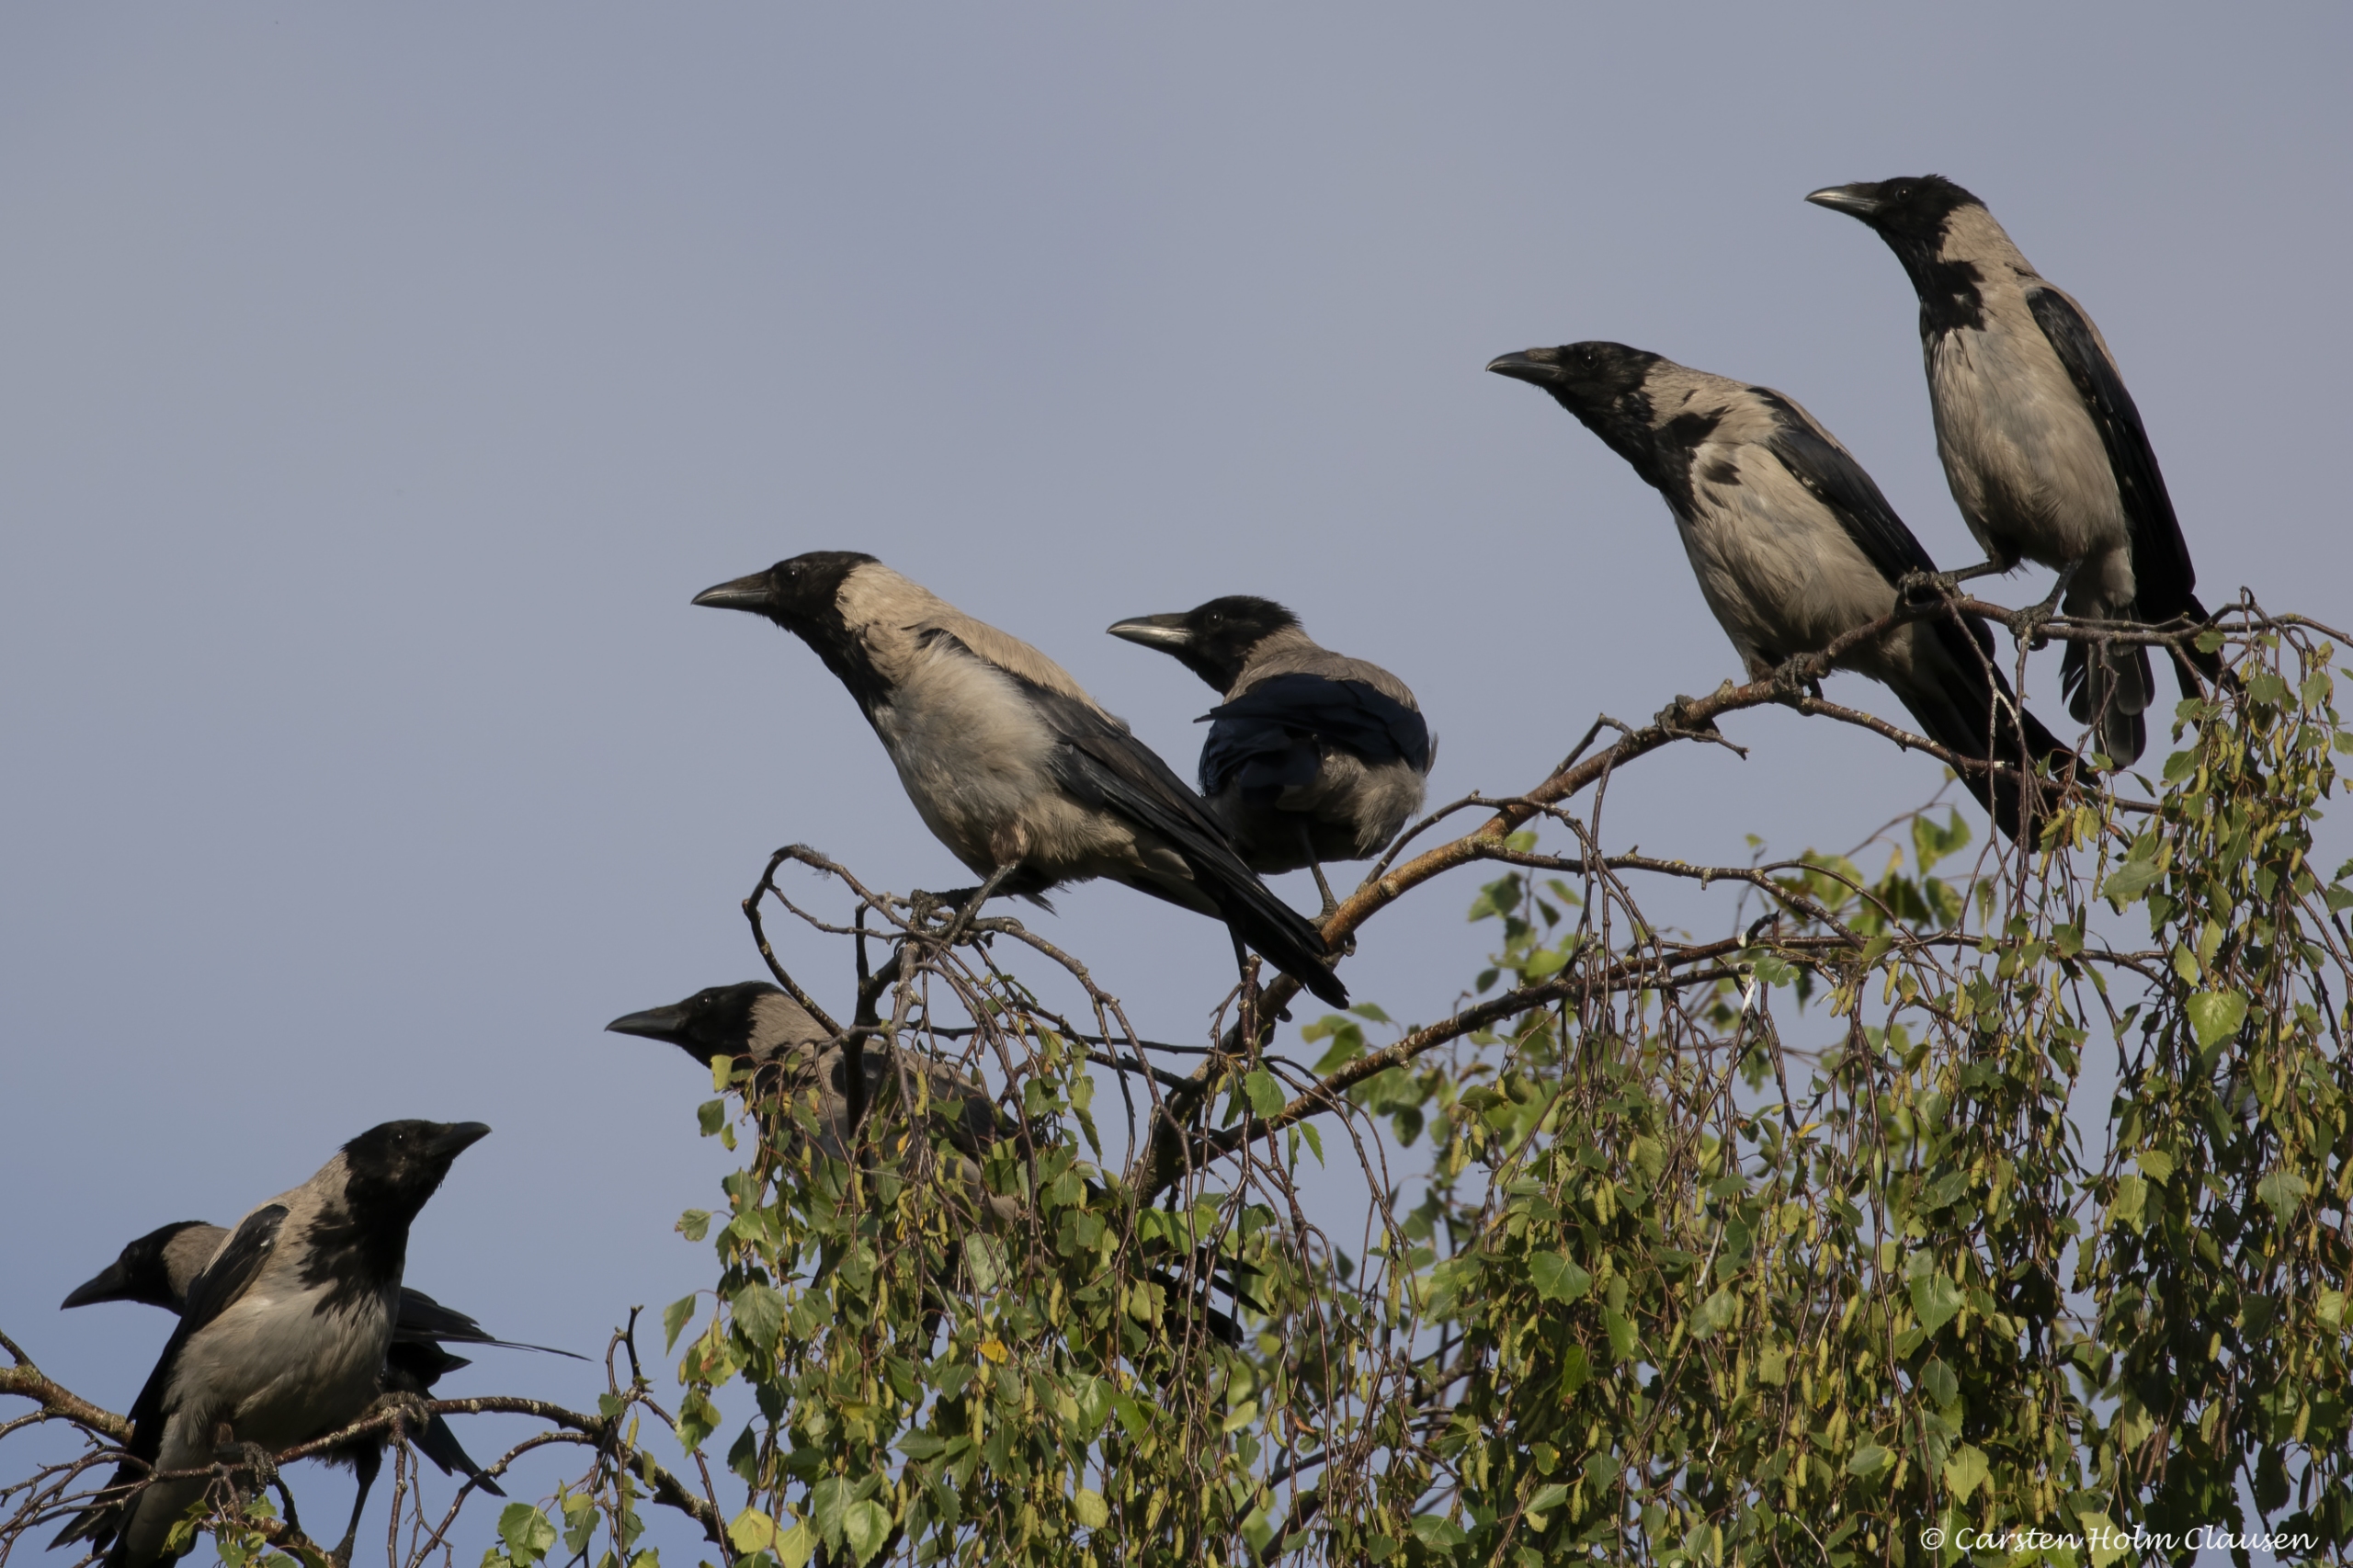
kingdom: Animalia
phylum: Chordata
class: Aves
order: Passeriformes
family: Corvidae
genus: Corvus
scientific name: Corvus cornix
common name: Gråkrage
